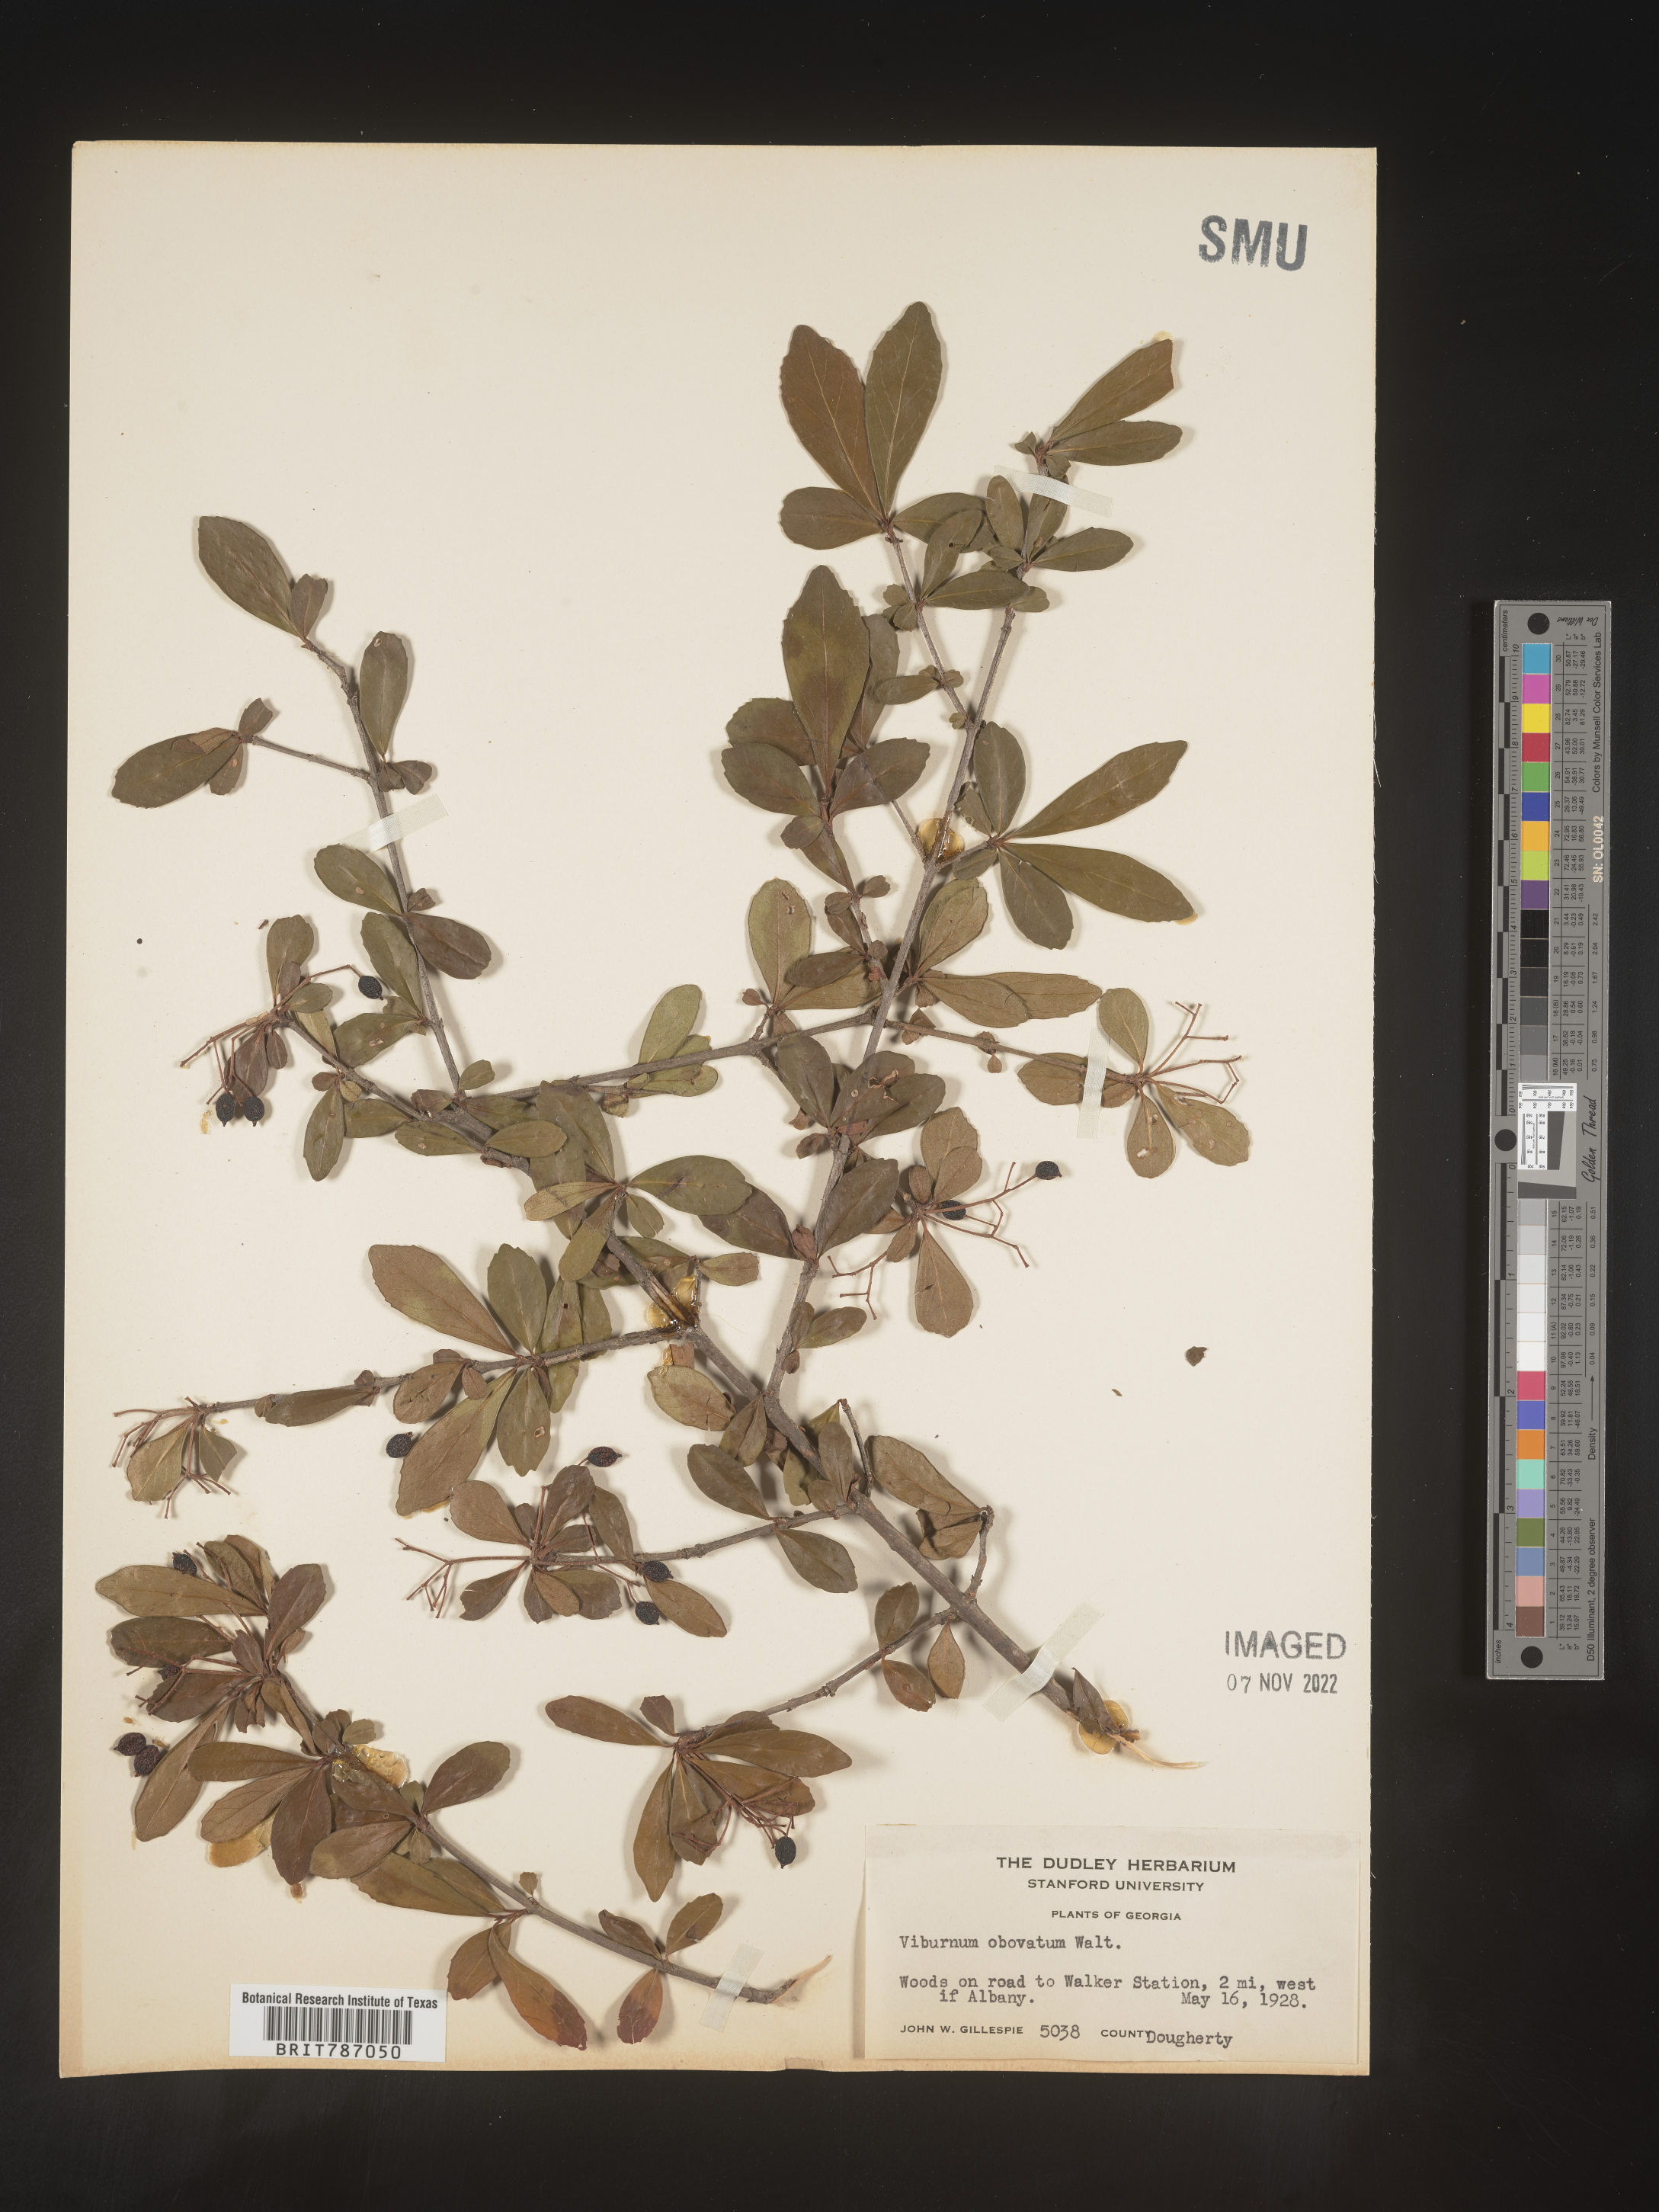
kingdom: Plantae
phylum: Tracheophyta
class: Magnoliopsida
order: Dipsacales
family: Viburnaceae
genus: Viburnum
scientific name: Viburnum obovatum
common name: Walter's viburnum
